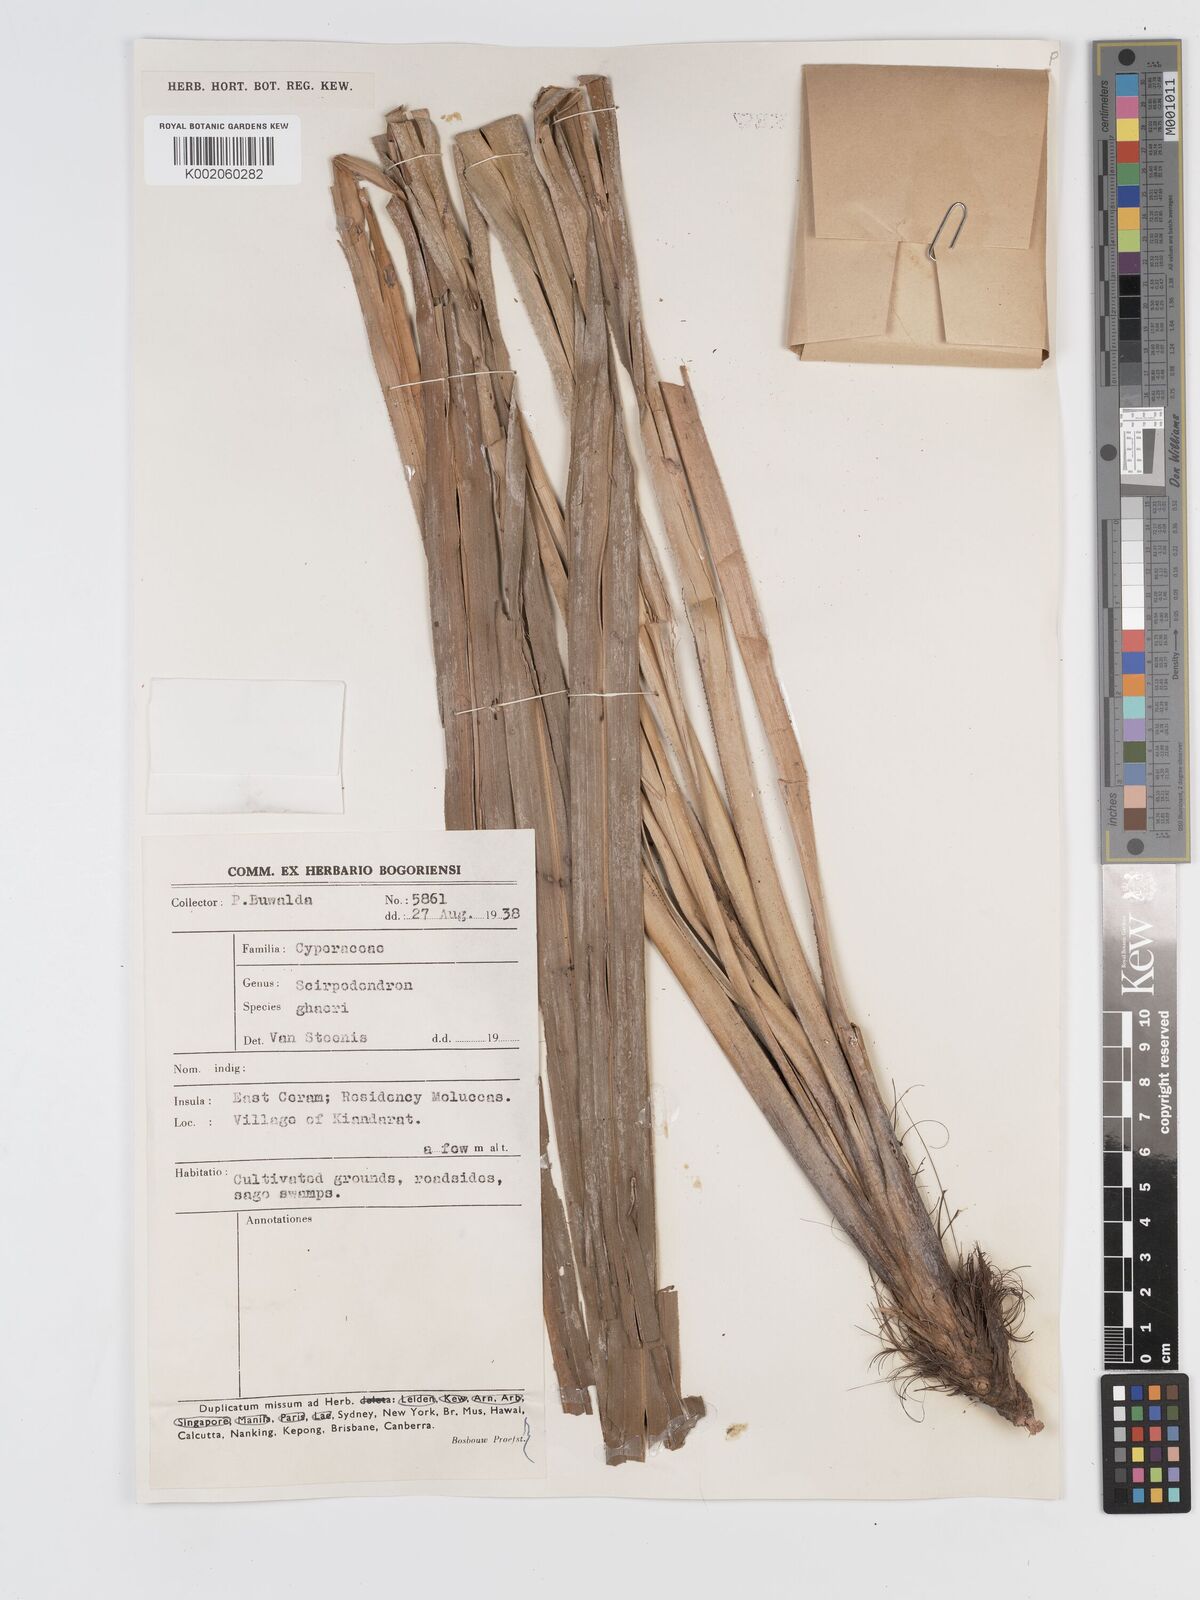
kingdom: Plantae
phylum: Tracheophyta
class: Liliopsida
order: Poales
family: Cyperaceae
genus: Scirpodendron
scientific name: Scirpodendron ghaeri
